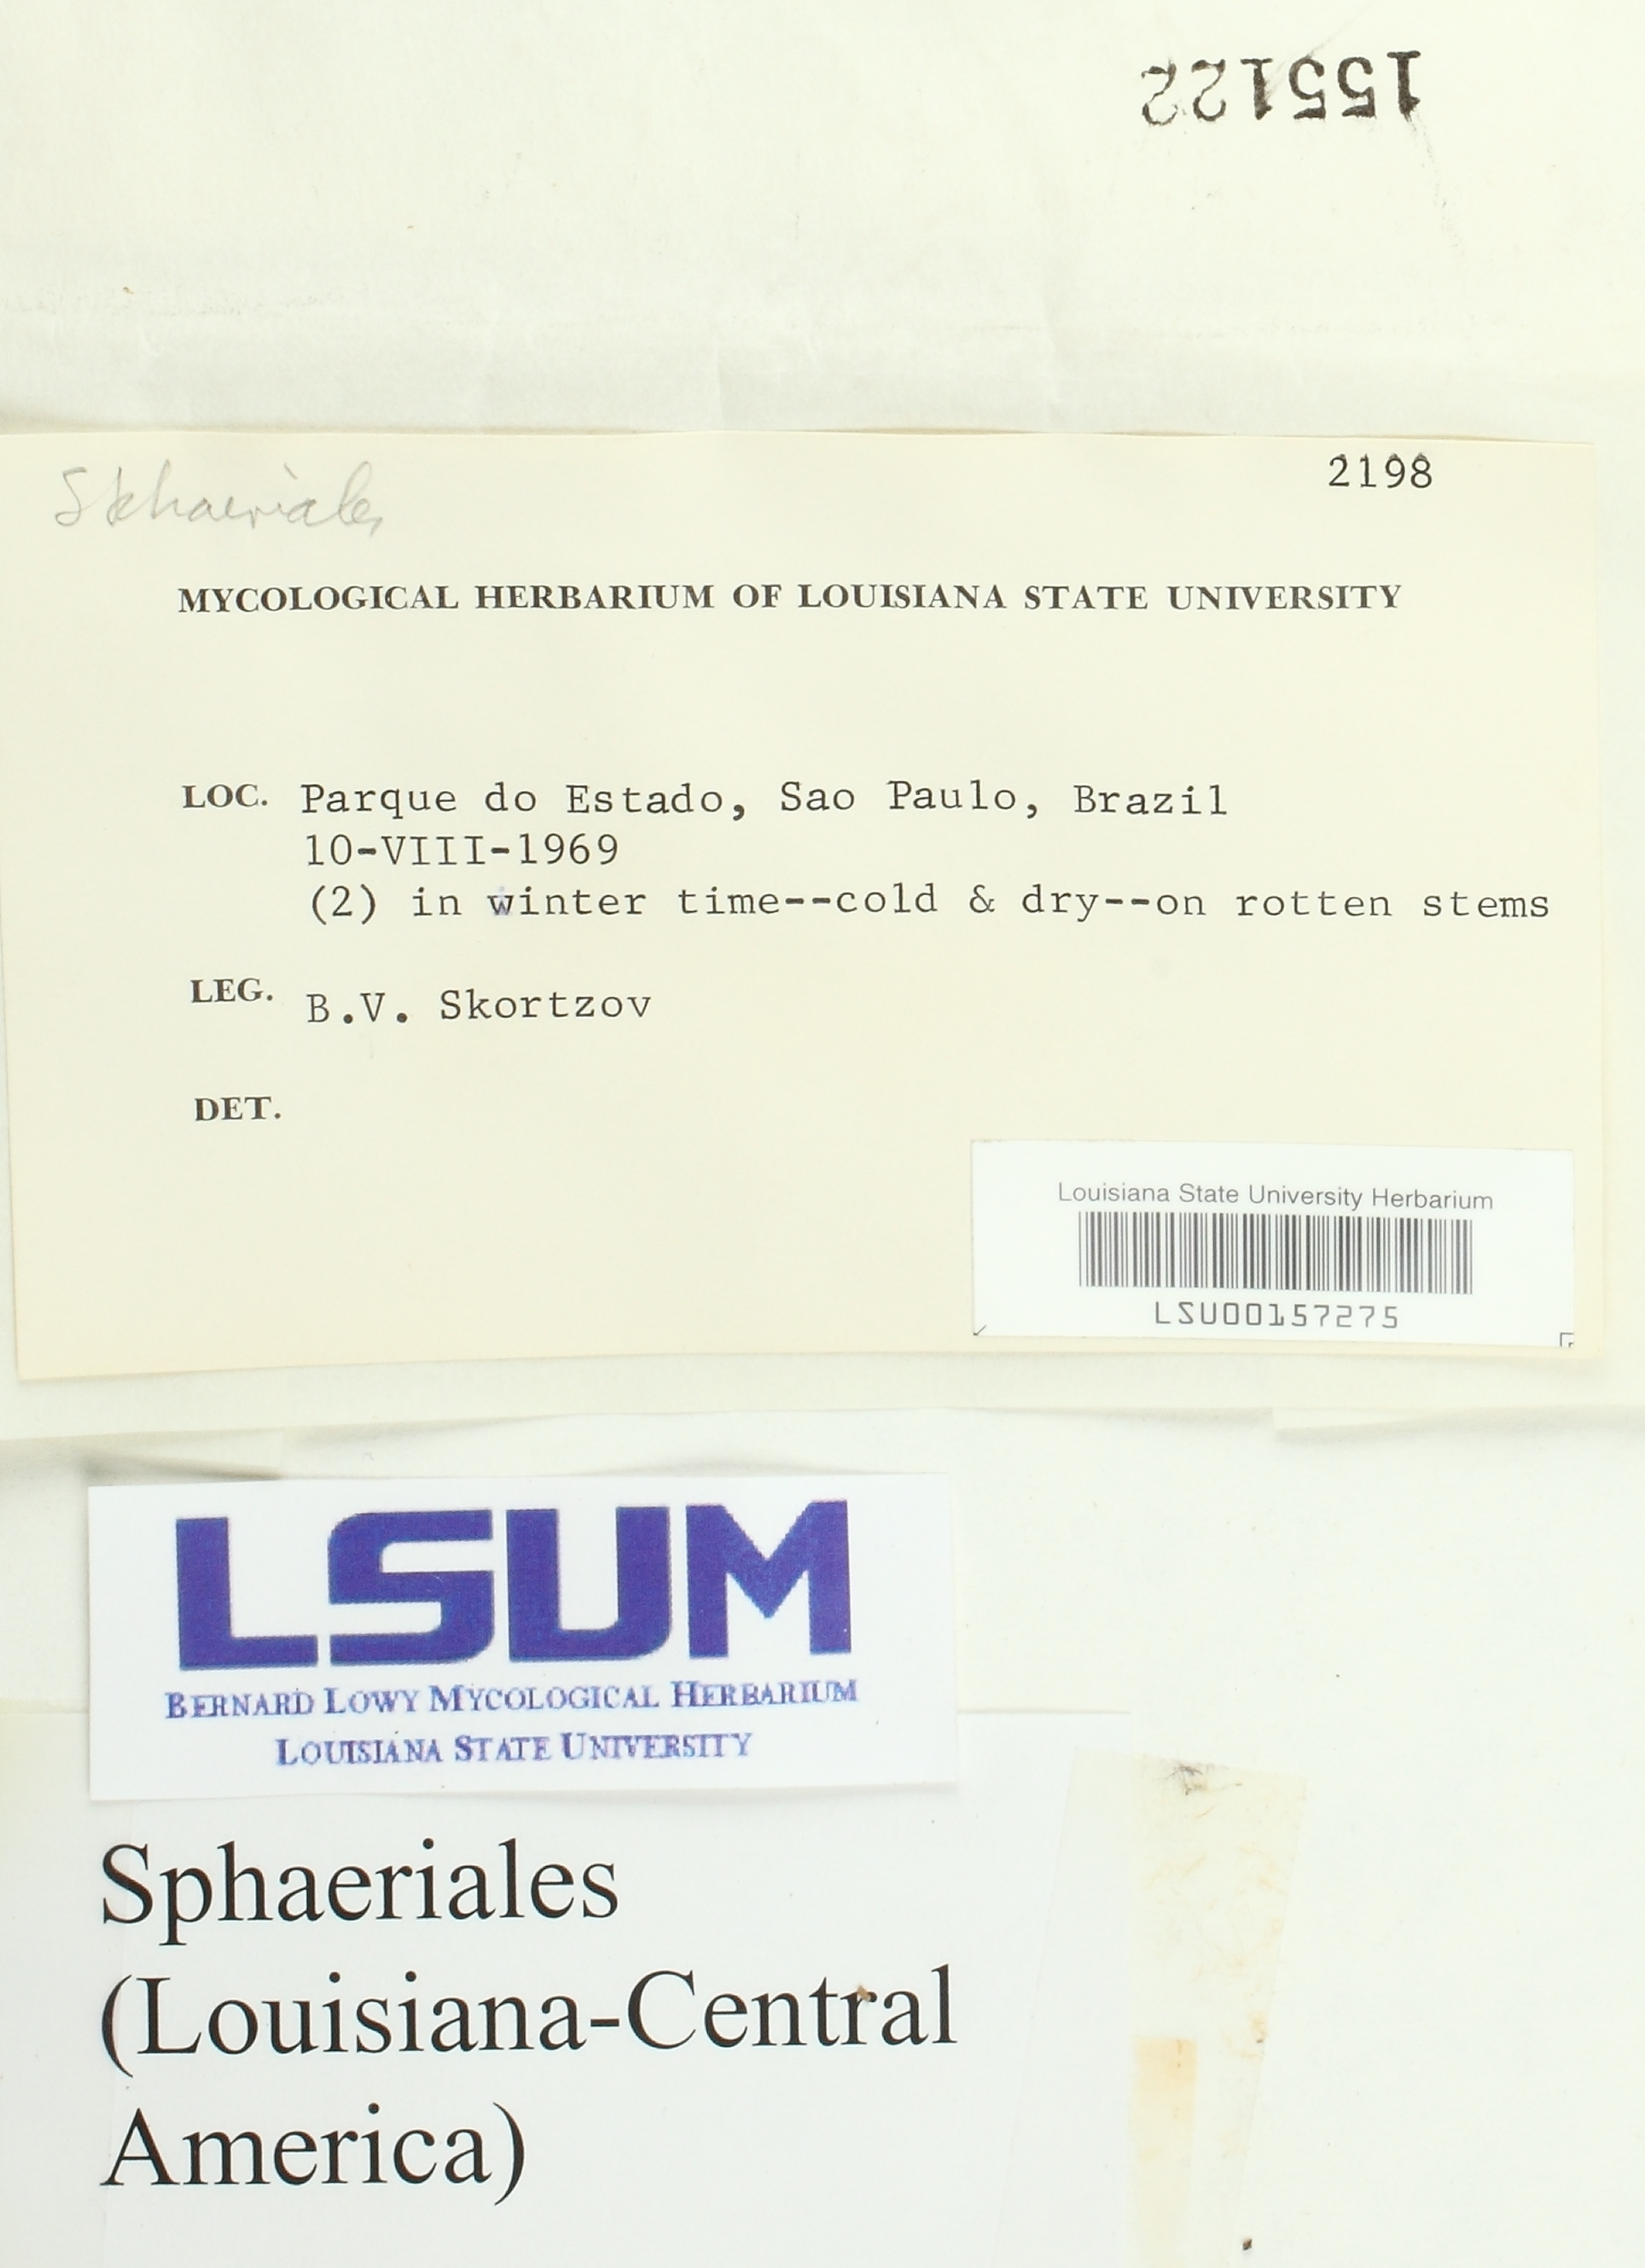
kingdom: Fungi
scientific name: Fungi
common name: Fungi
